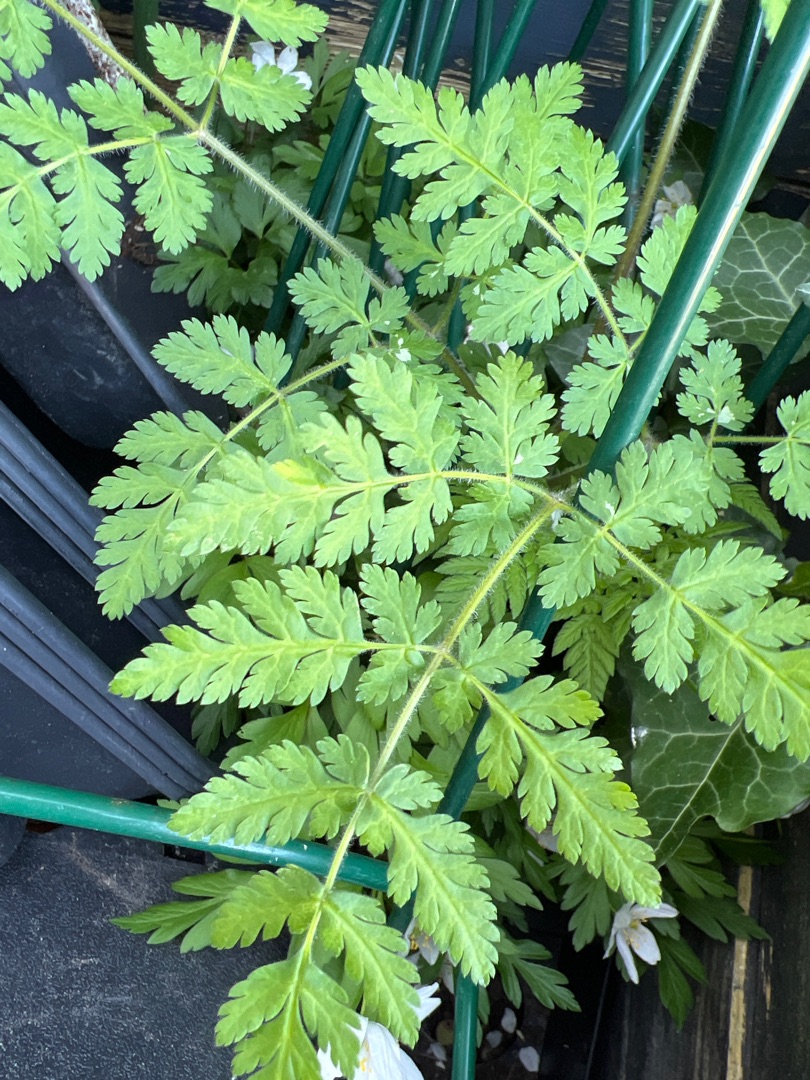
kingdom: Plantae
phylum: Tracheophyta
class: Magnoliopsida
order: Apiales
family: Apiaceae
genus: Myrrhis
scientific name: Myrrhis odorata
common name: Sødskærm
